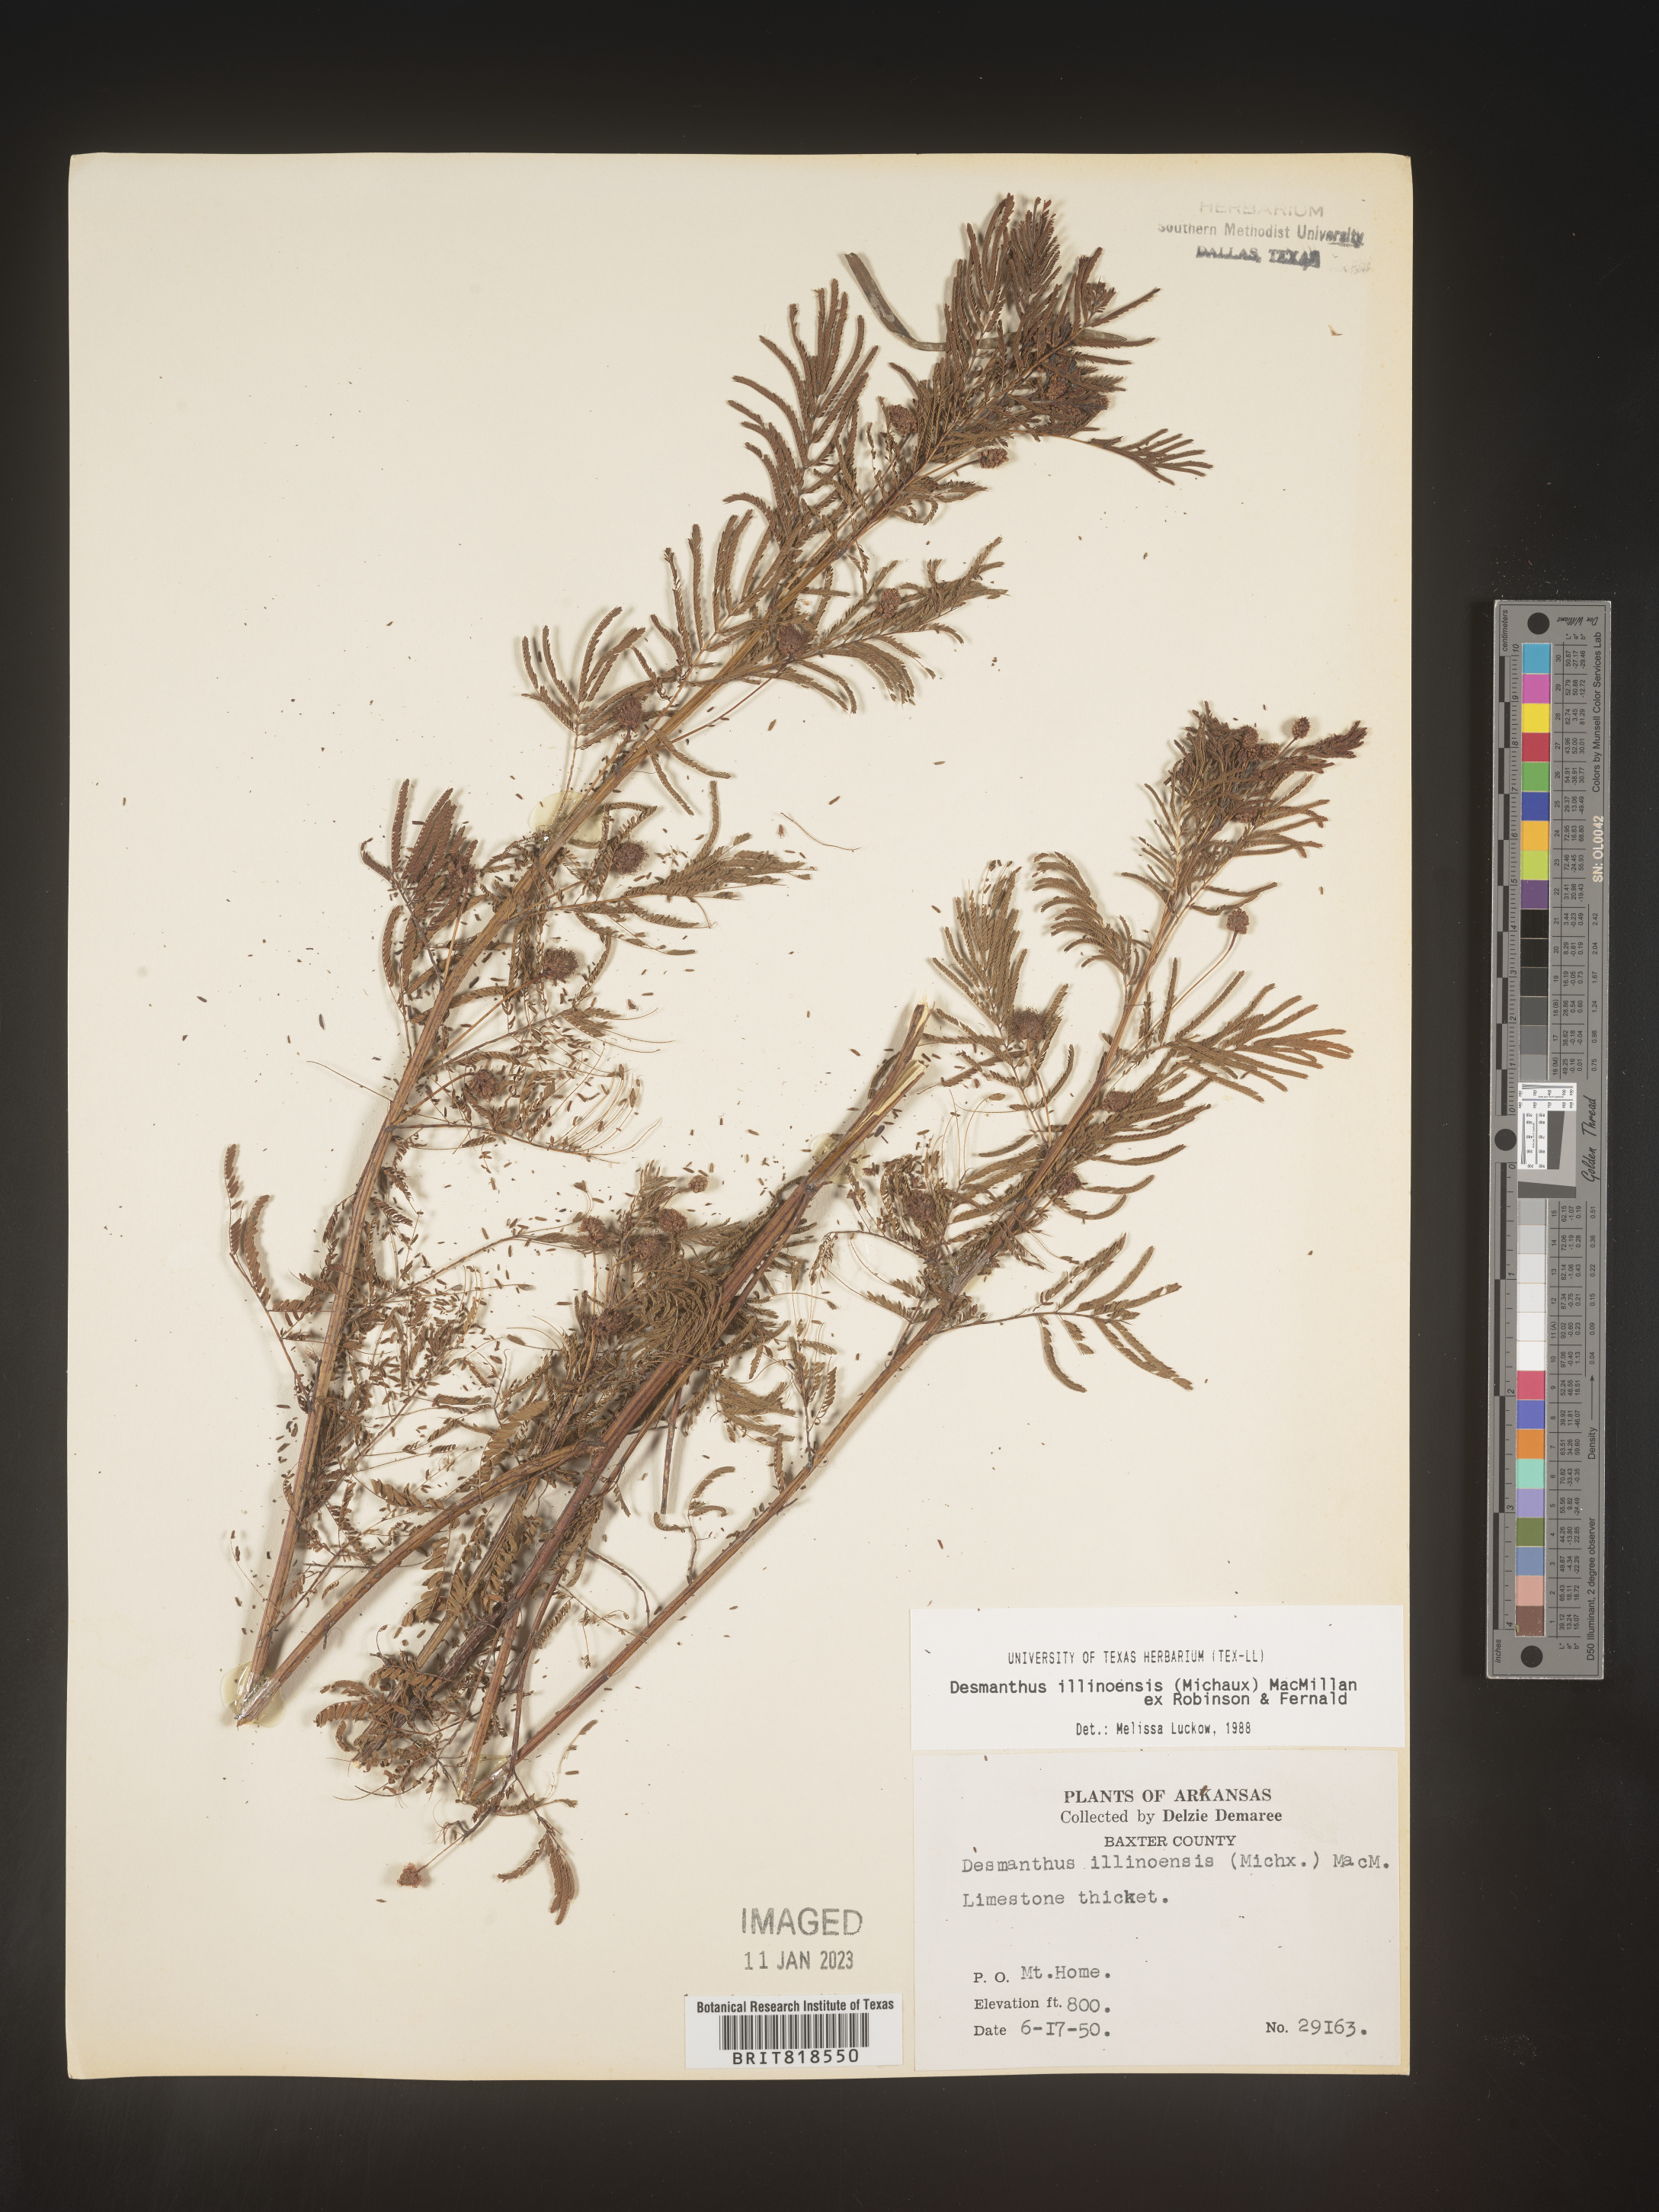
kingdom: Plantae
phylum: Tracheophyta
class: Magnoliopsida
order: Fabales
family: Fabaceae
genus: Desmanthus
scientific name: Desmanthus illinoensis
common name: Illinois bundle-flower
